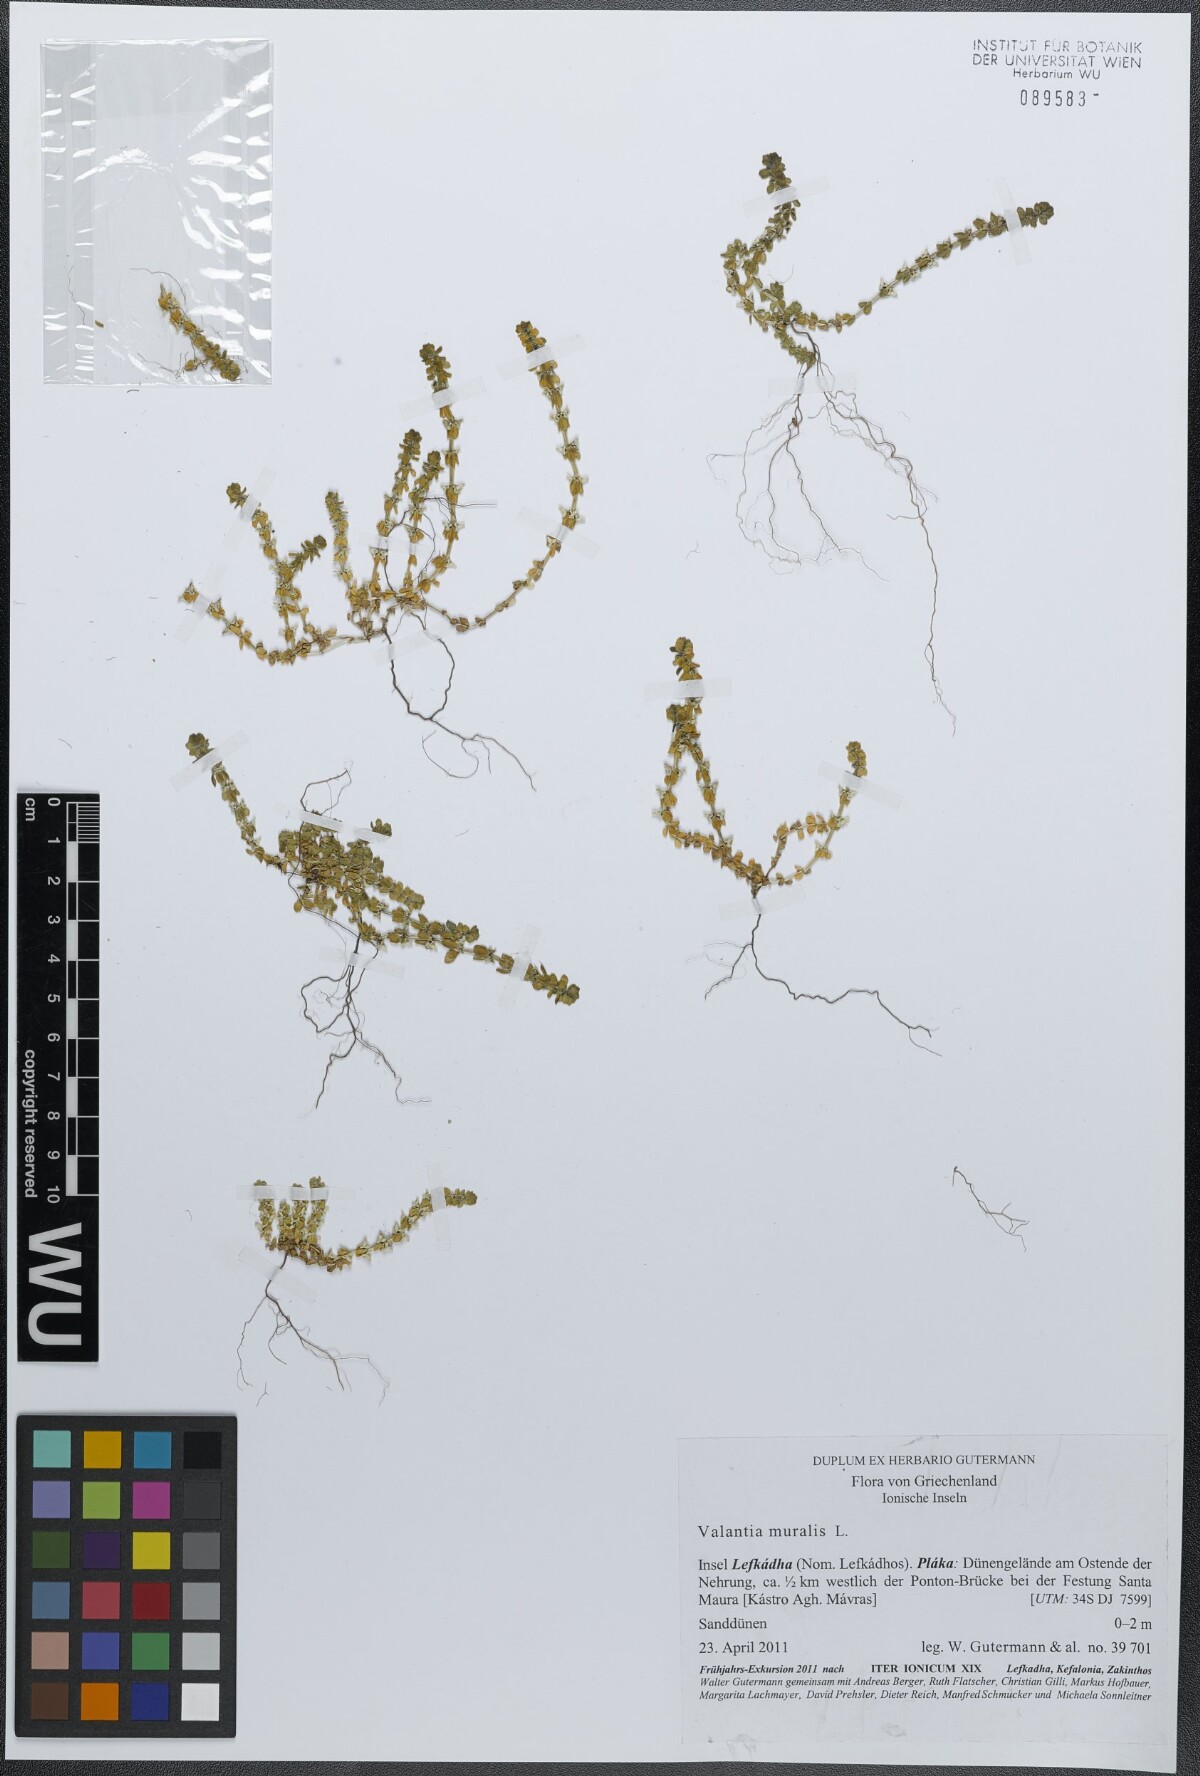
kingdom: Plantae
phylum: Tracheophyta
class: Magnoliopsida
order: Gentianales
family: Rubiaceae
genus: Valantia
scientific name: Valantia muralis
